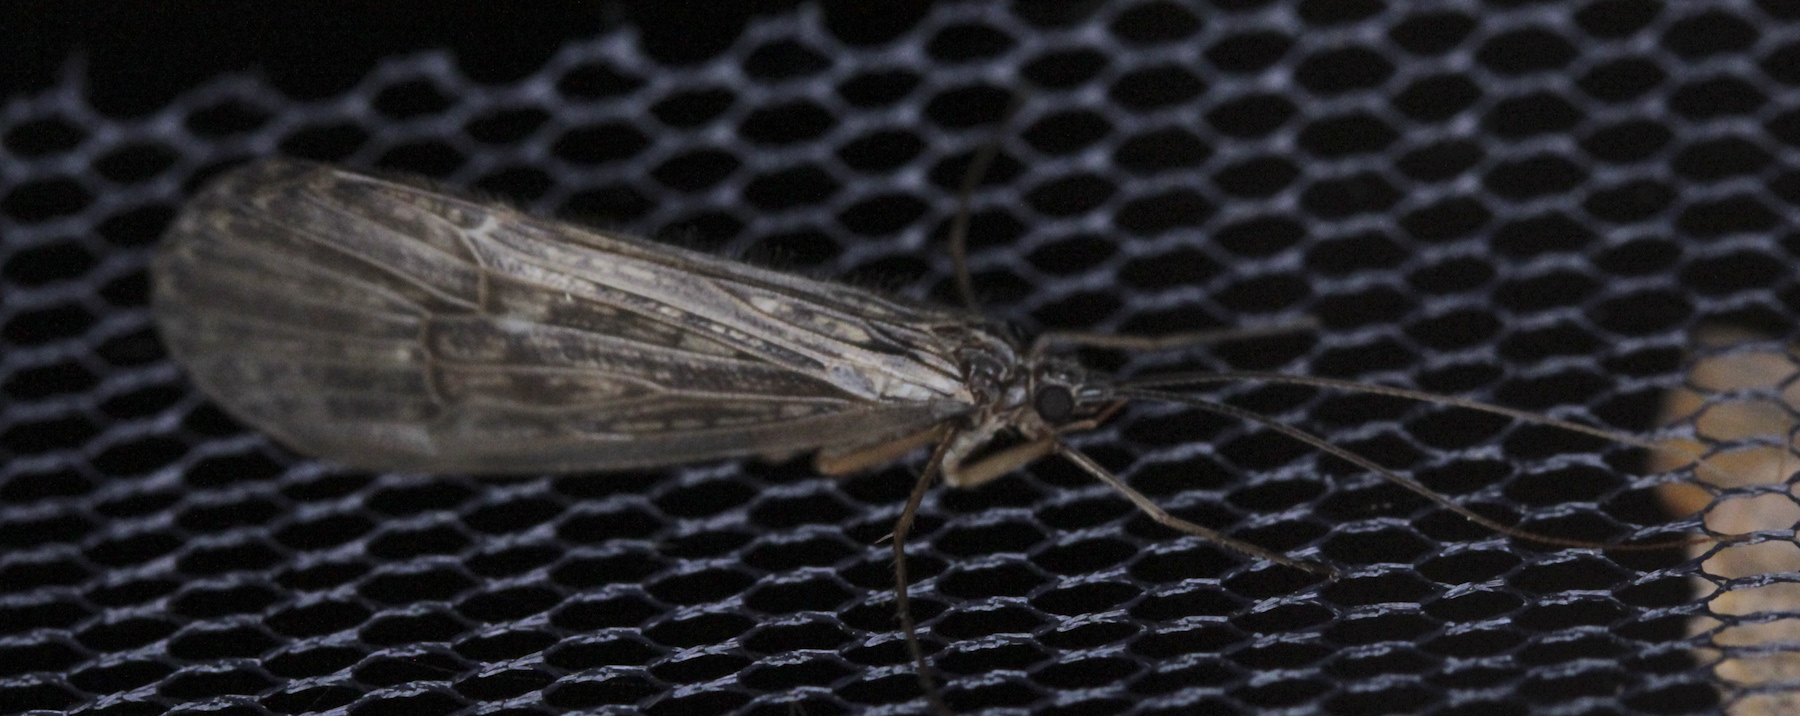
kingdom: Animalia
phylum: Arthropoda
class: Insecta
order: Trichoptera
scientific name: Trichoptera
